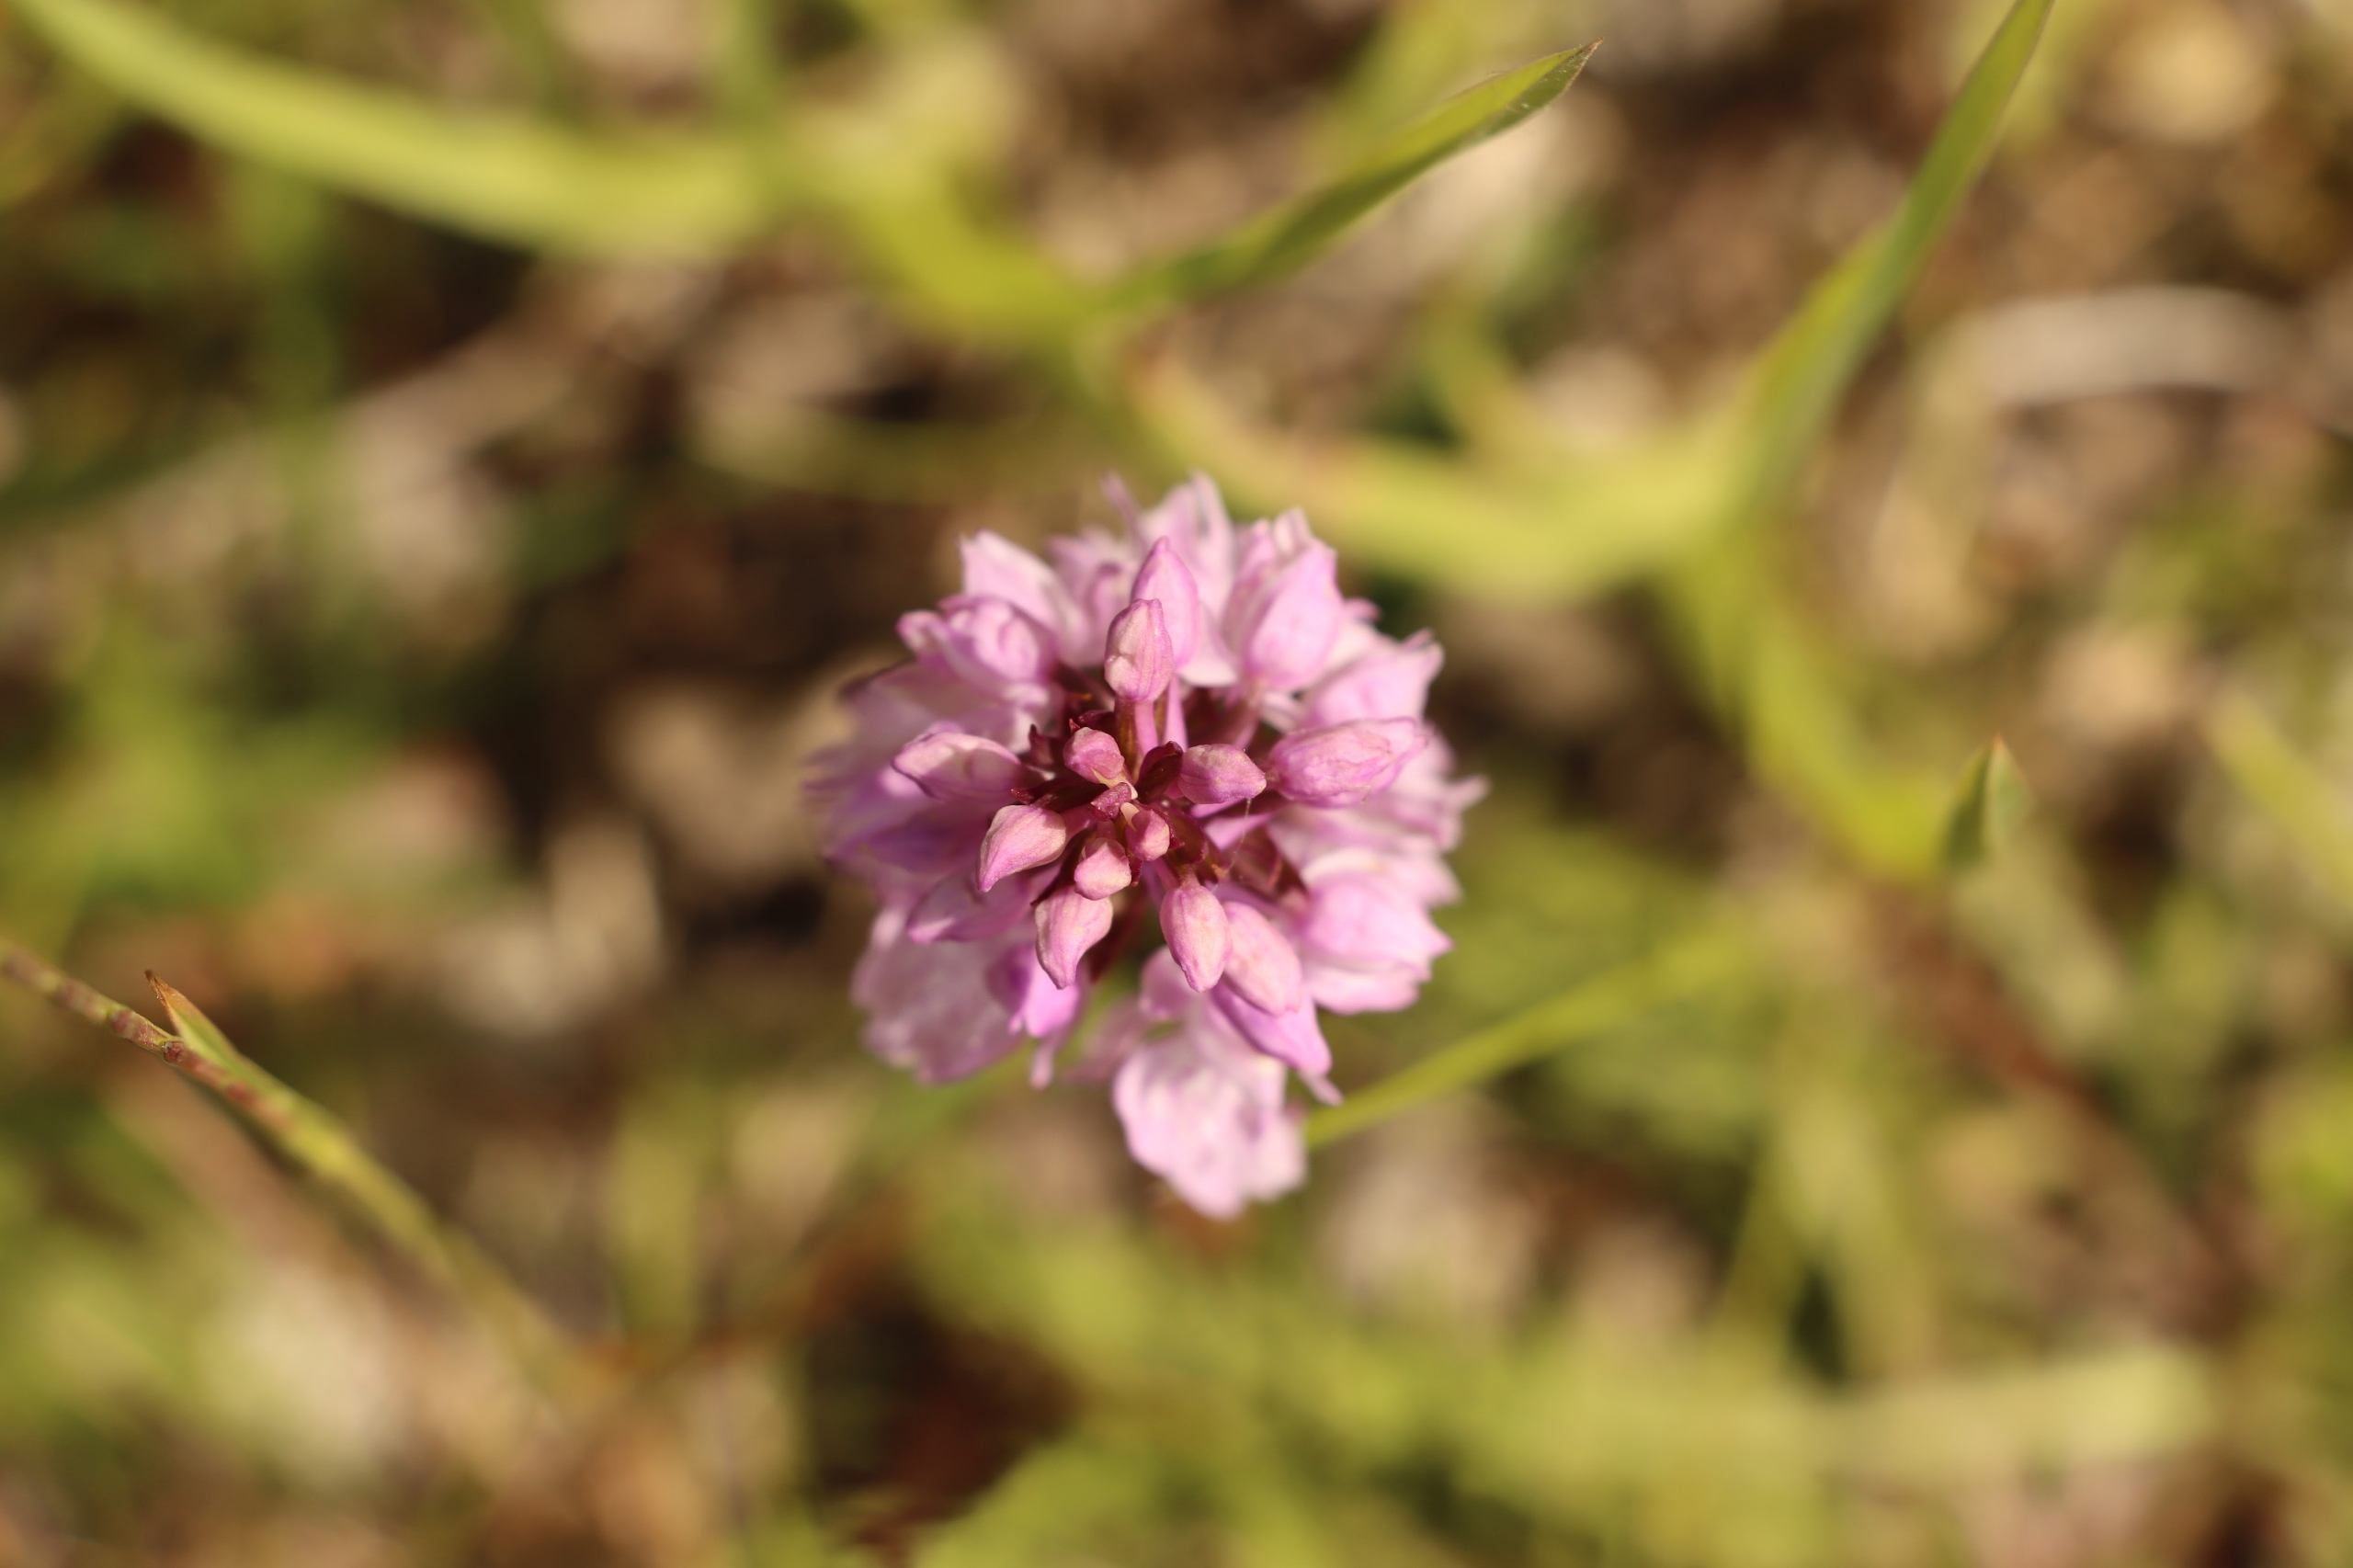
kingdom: Plantae
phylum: Tracheophyta
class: Liliopsida
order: Asparagales
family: Orchidaceae
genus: Dactylorhiza
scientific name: Dactylorhiza maculata
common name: Plettet gøgeurt
